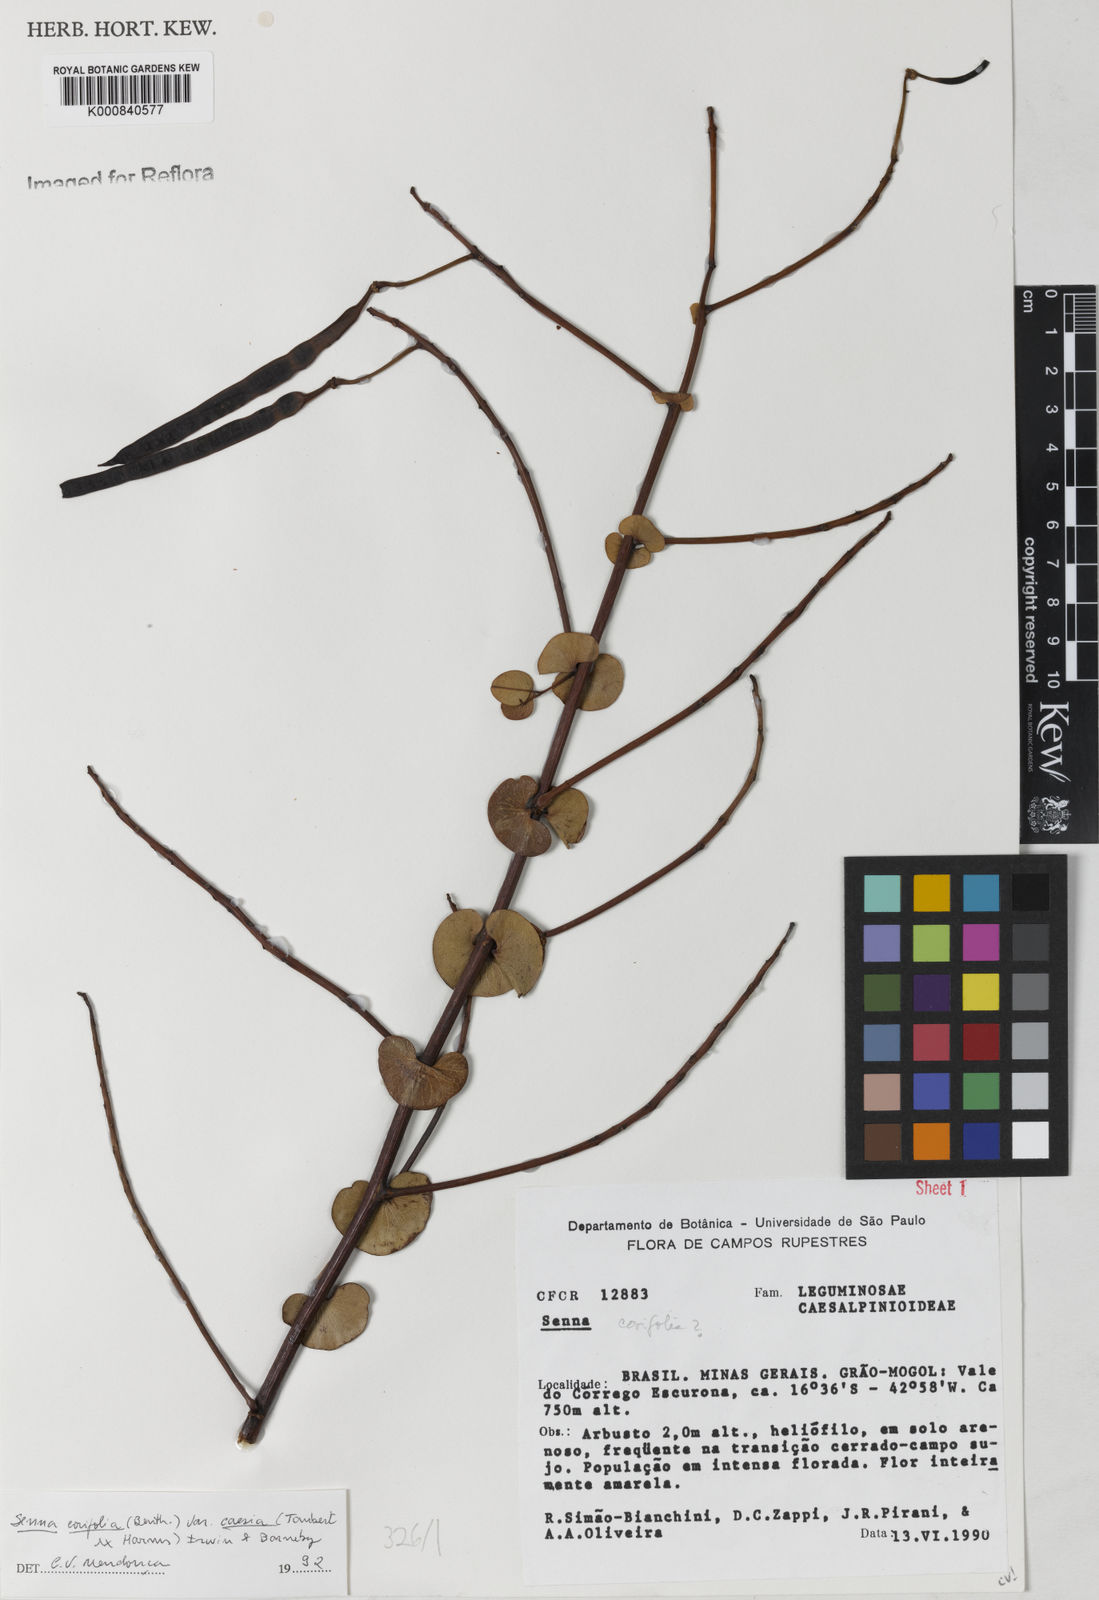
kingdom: Plantae
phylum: Tracheophyta
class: Magnoliopsida
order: Fabales
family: Fabaceae
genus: Senna
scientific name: Senna corifolia
